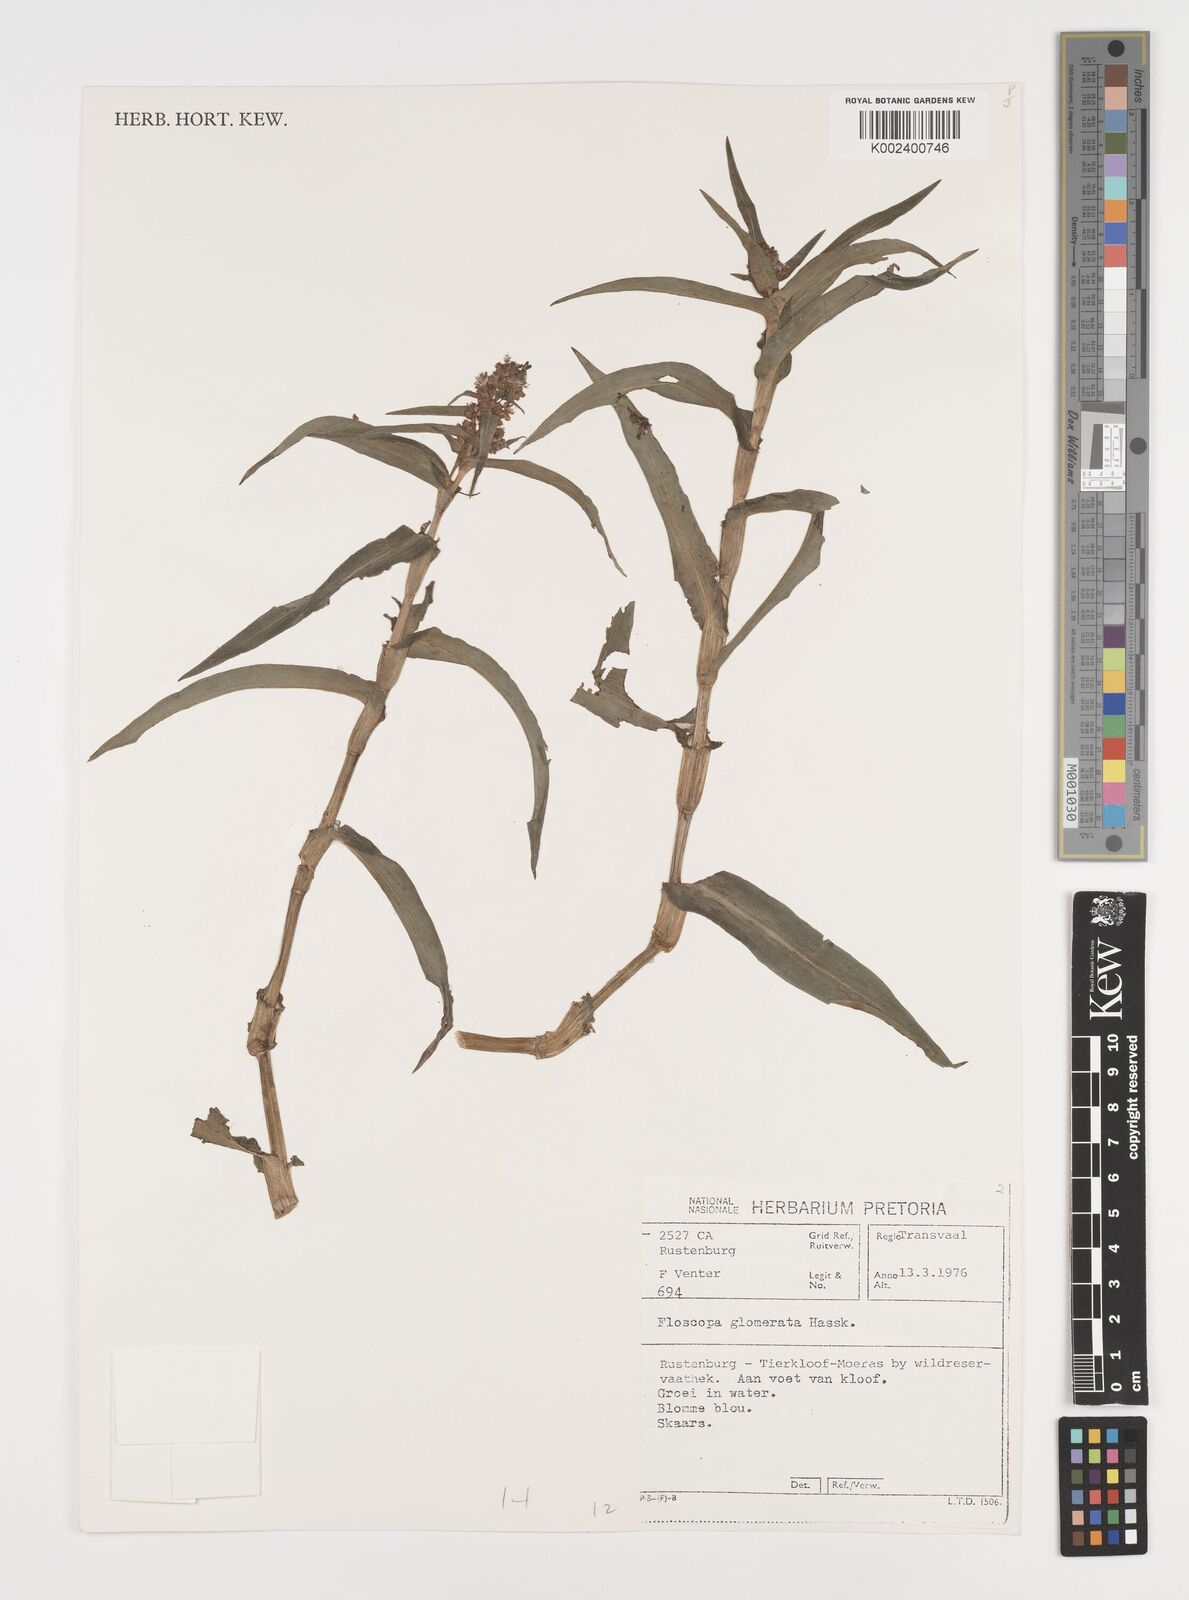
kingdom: Plantae
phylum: Tracheophyta
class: Liliopsida
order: Commelinales
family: Commelinaceae
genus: Floscopa
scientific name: Floscopa glomerata
